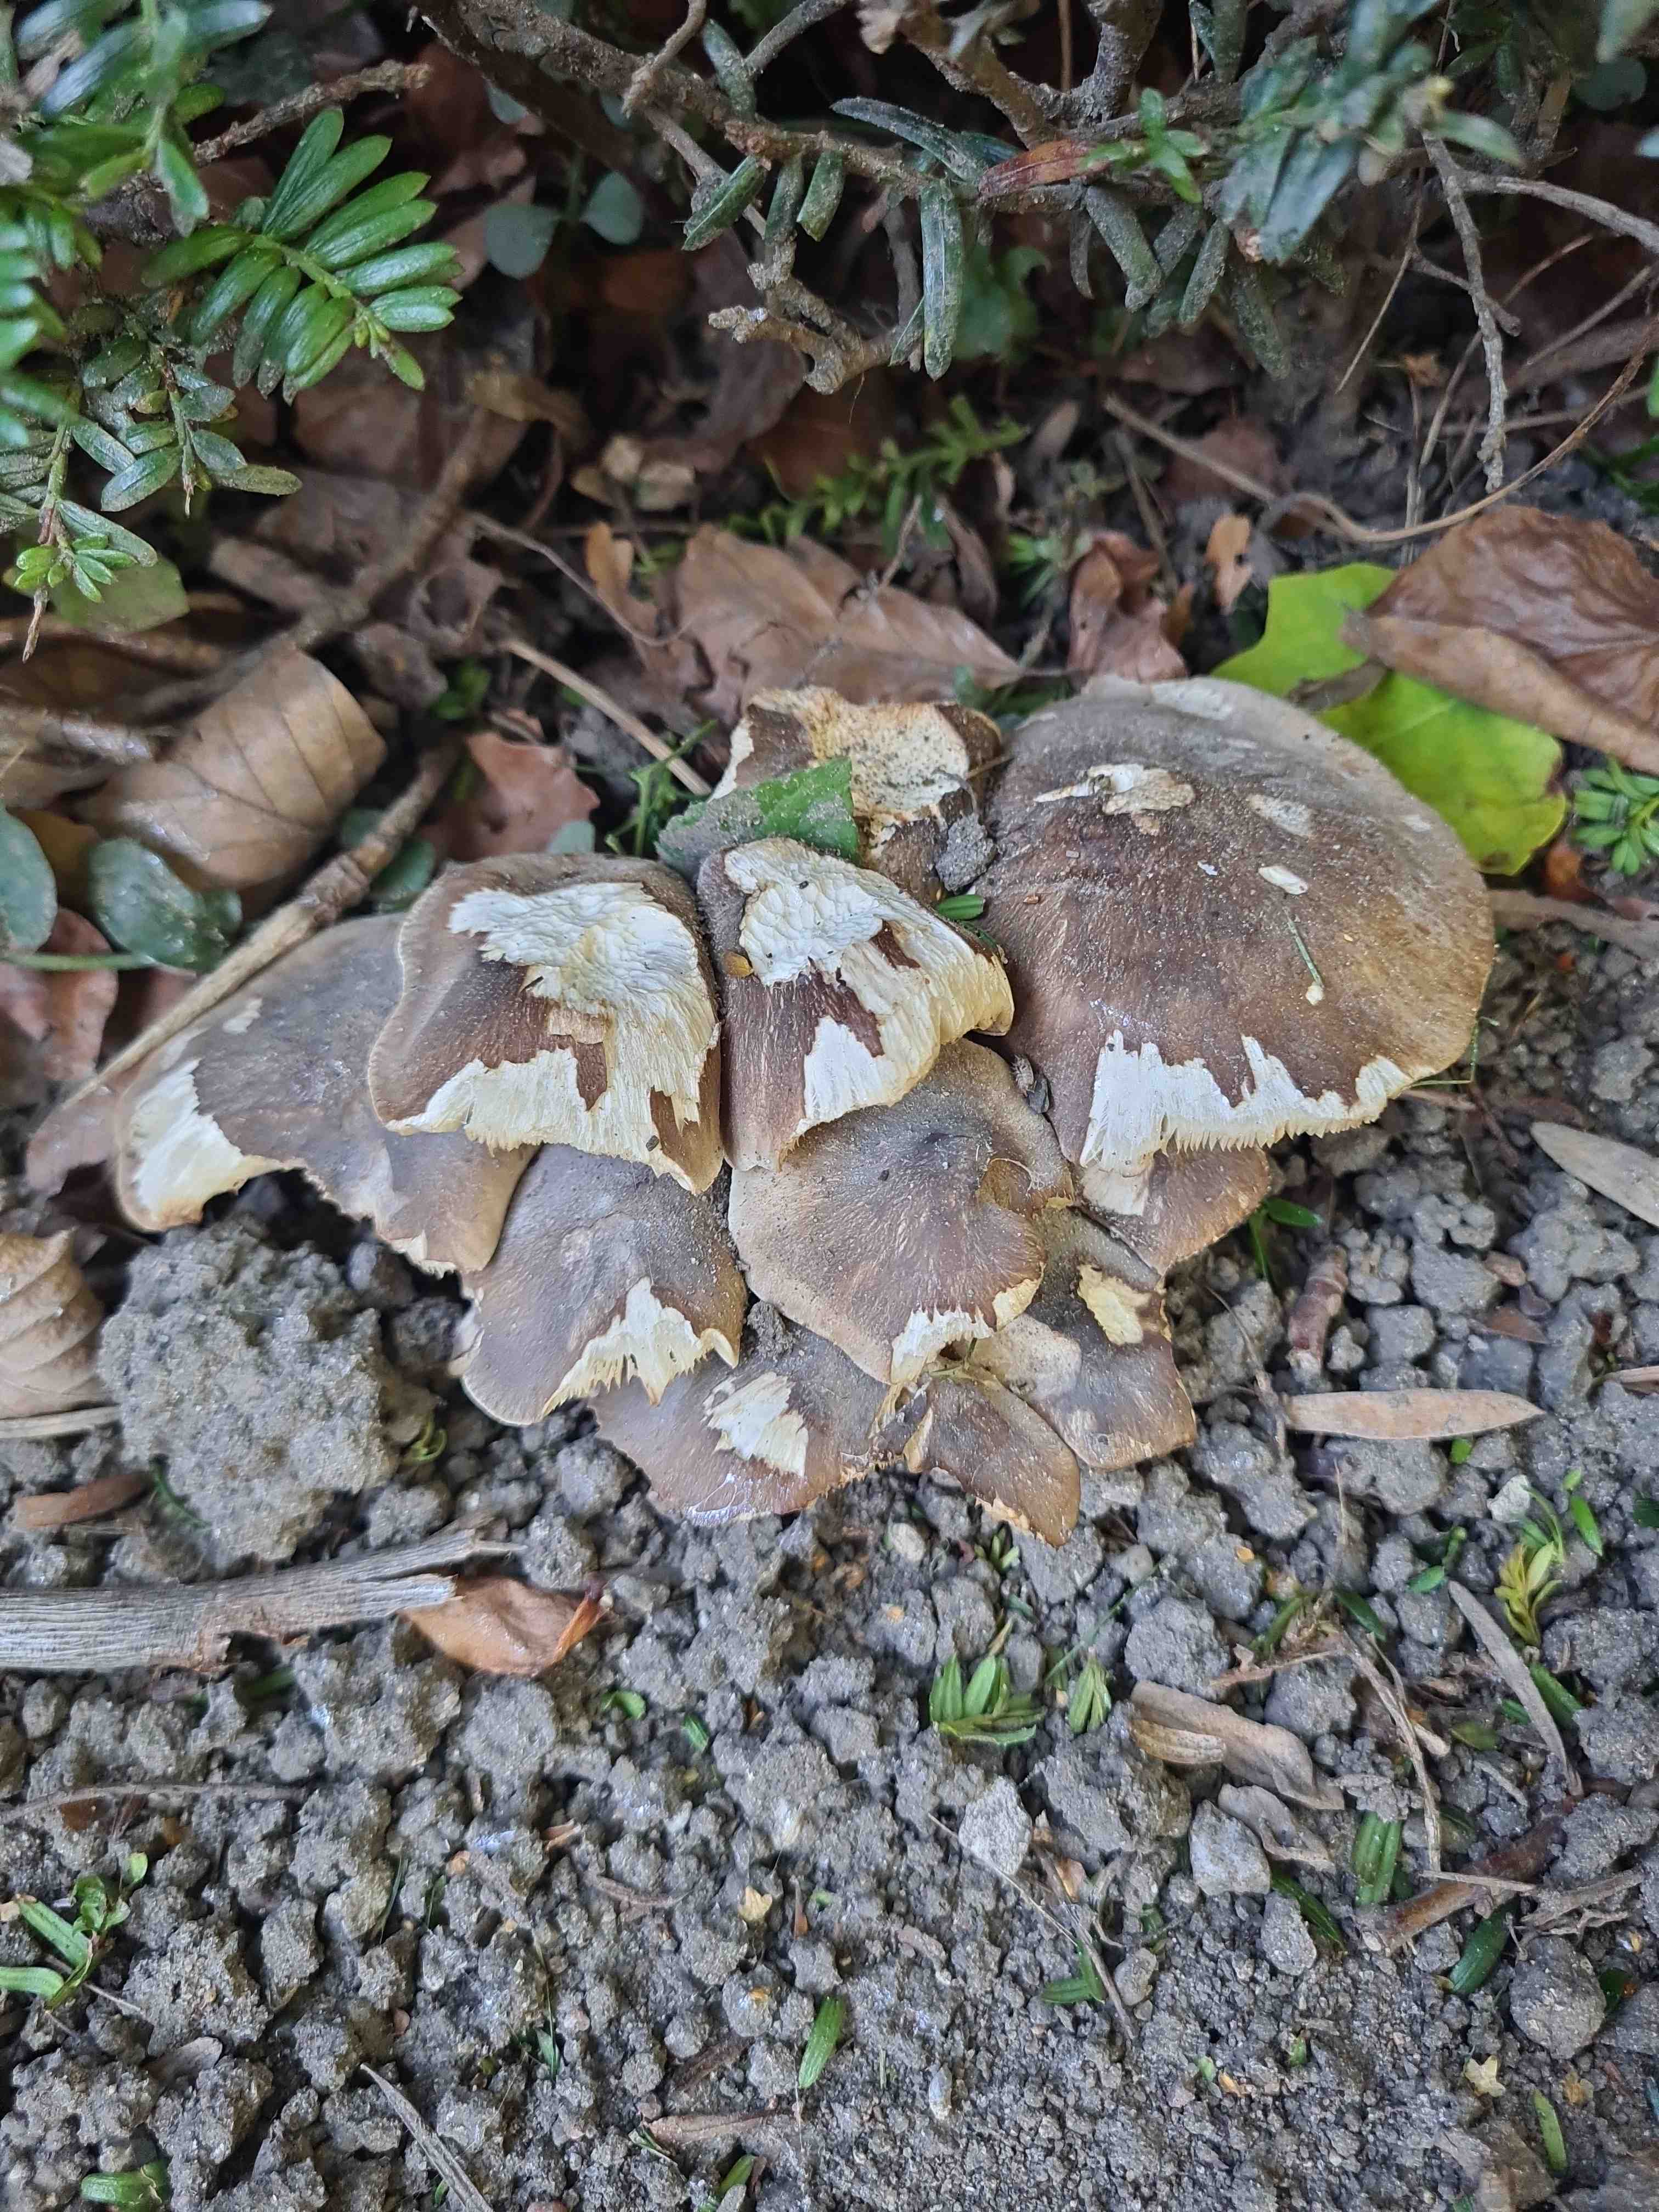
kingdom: Fungi
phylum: Basidiomycota
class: Agaricomycetes
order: Agaricales
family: Lyophyllaceae
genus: Lyophyllum
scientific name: Lyophyllum
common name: gråblad
